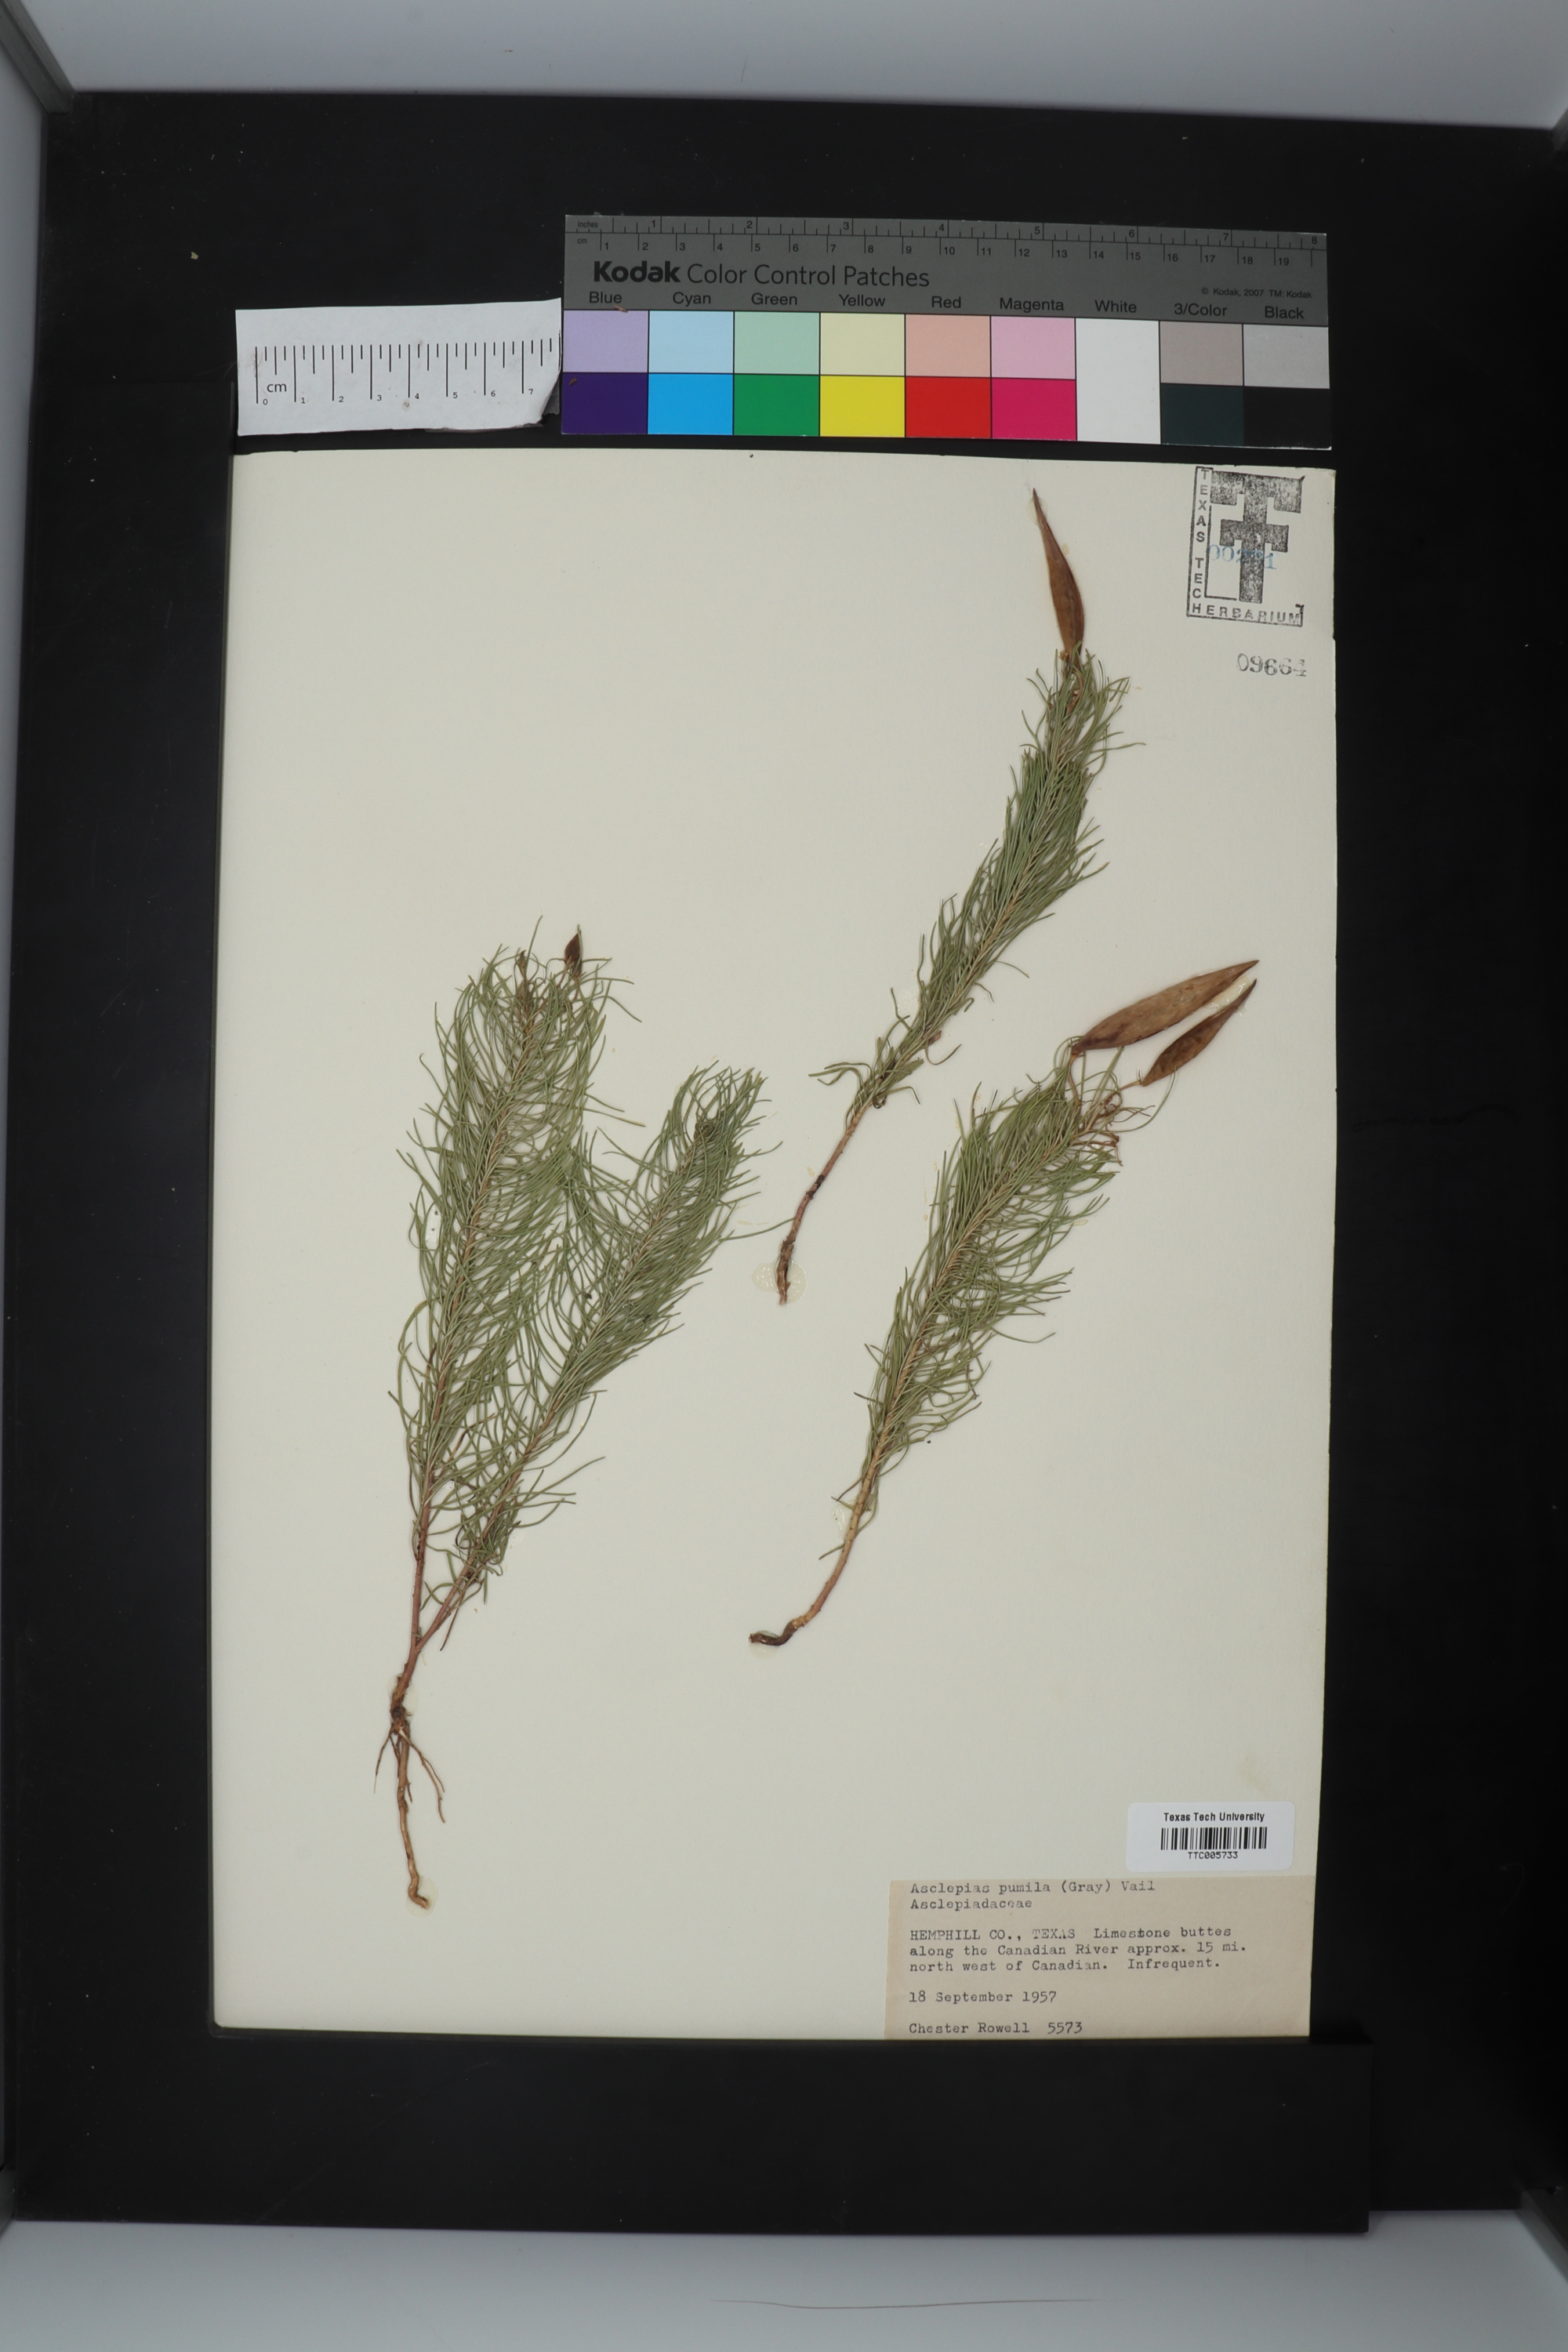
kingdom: Plantae
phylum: Tracheophyta
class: Magnoliopsida
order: Gentianales
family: Apocynaceae
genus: Asclepias
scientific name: Asclepias pumila
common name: Dwarf milkweed
